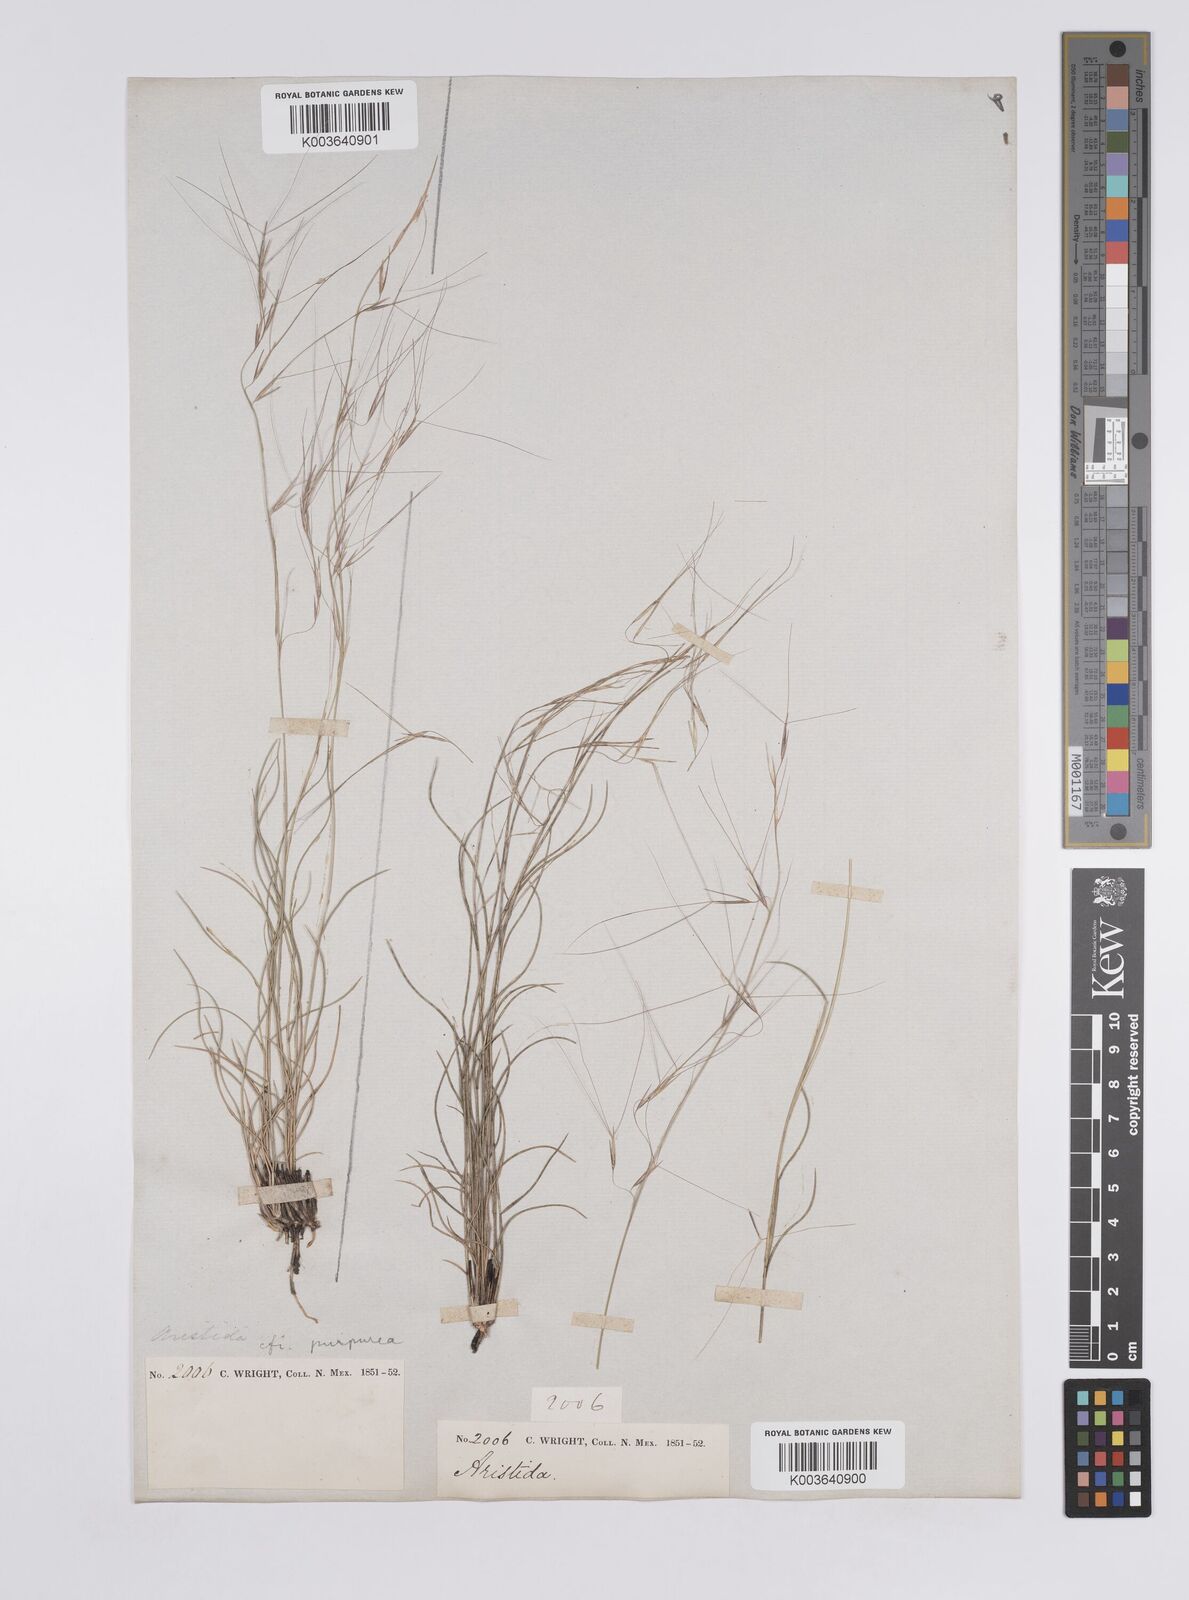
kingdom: Plantae
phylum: Tracheophyta
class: Liliopsida
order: Poales
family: Poaceae
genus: Aristida
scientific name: Aristida purpurea
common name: Purple threeawn
